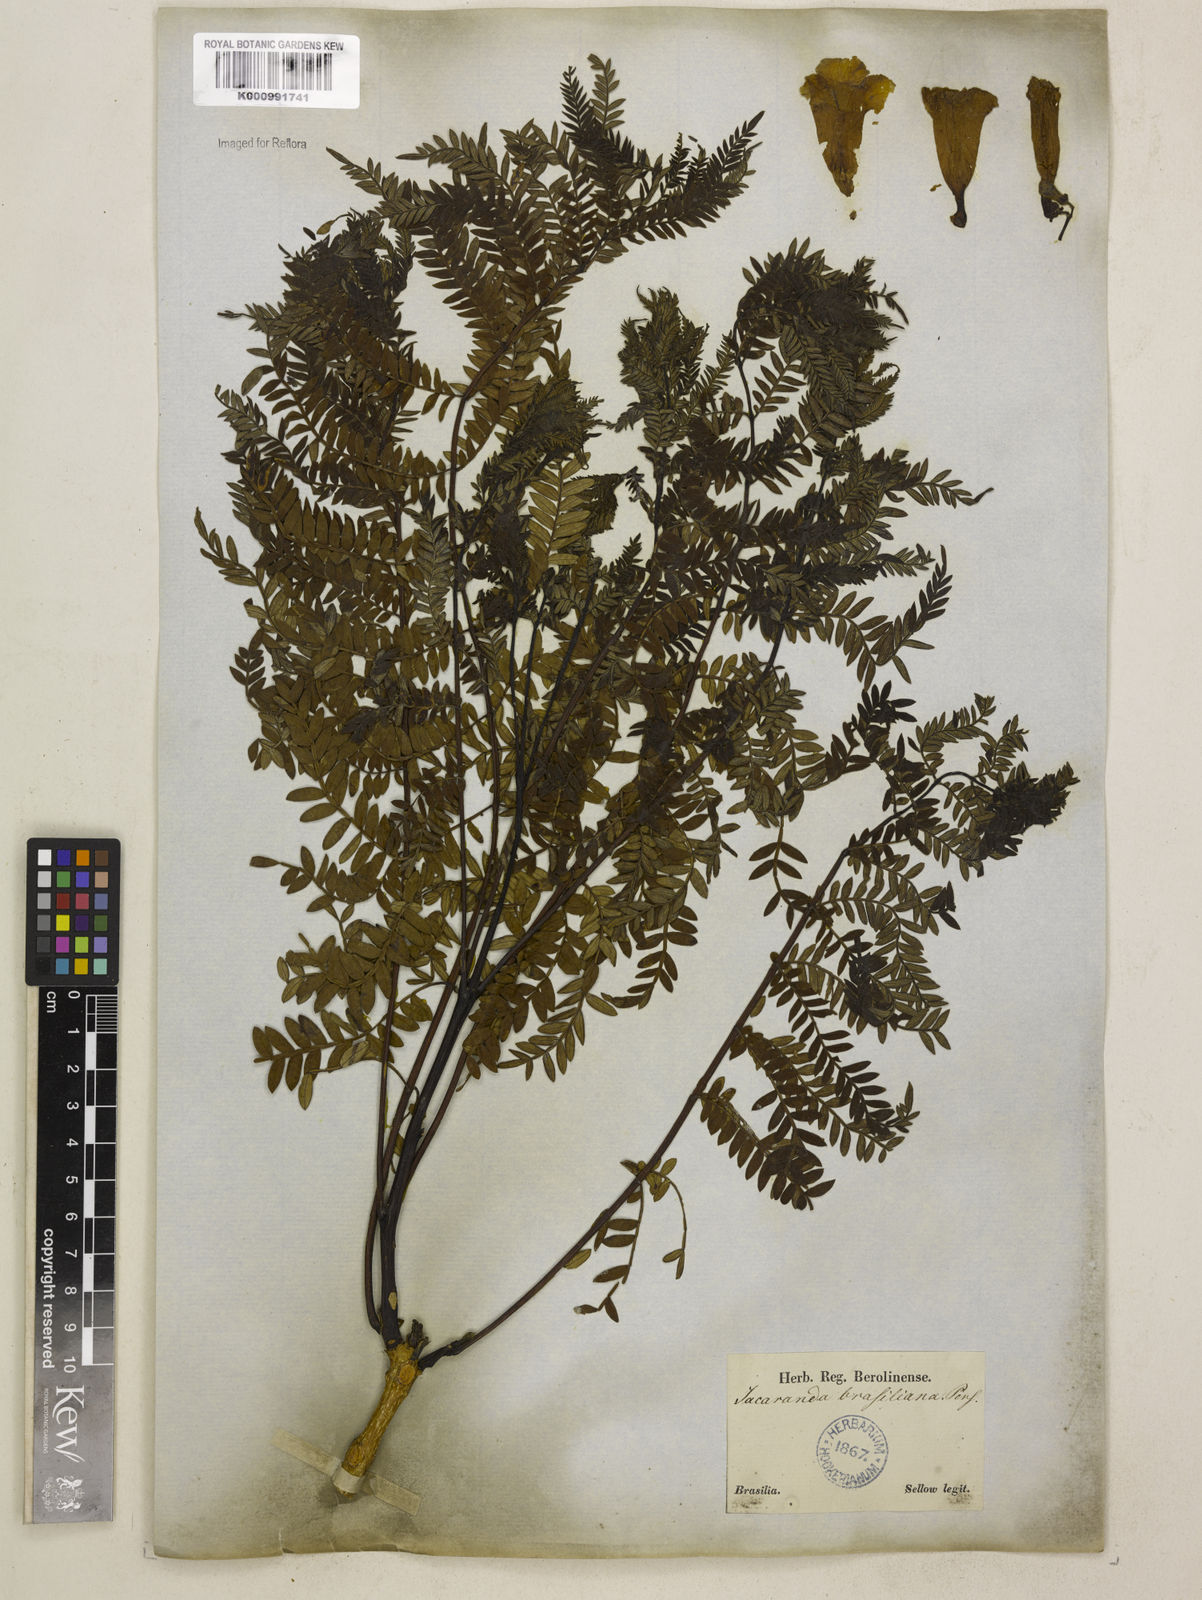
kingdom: Plantae
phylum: Tracheophyta
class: Magnoliopsida
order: Lamiales
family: Bignoniaceae
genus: Jacaranda
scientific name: Jacaranda brasiliana
